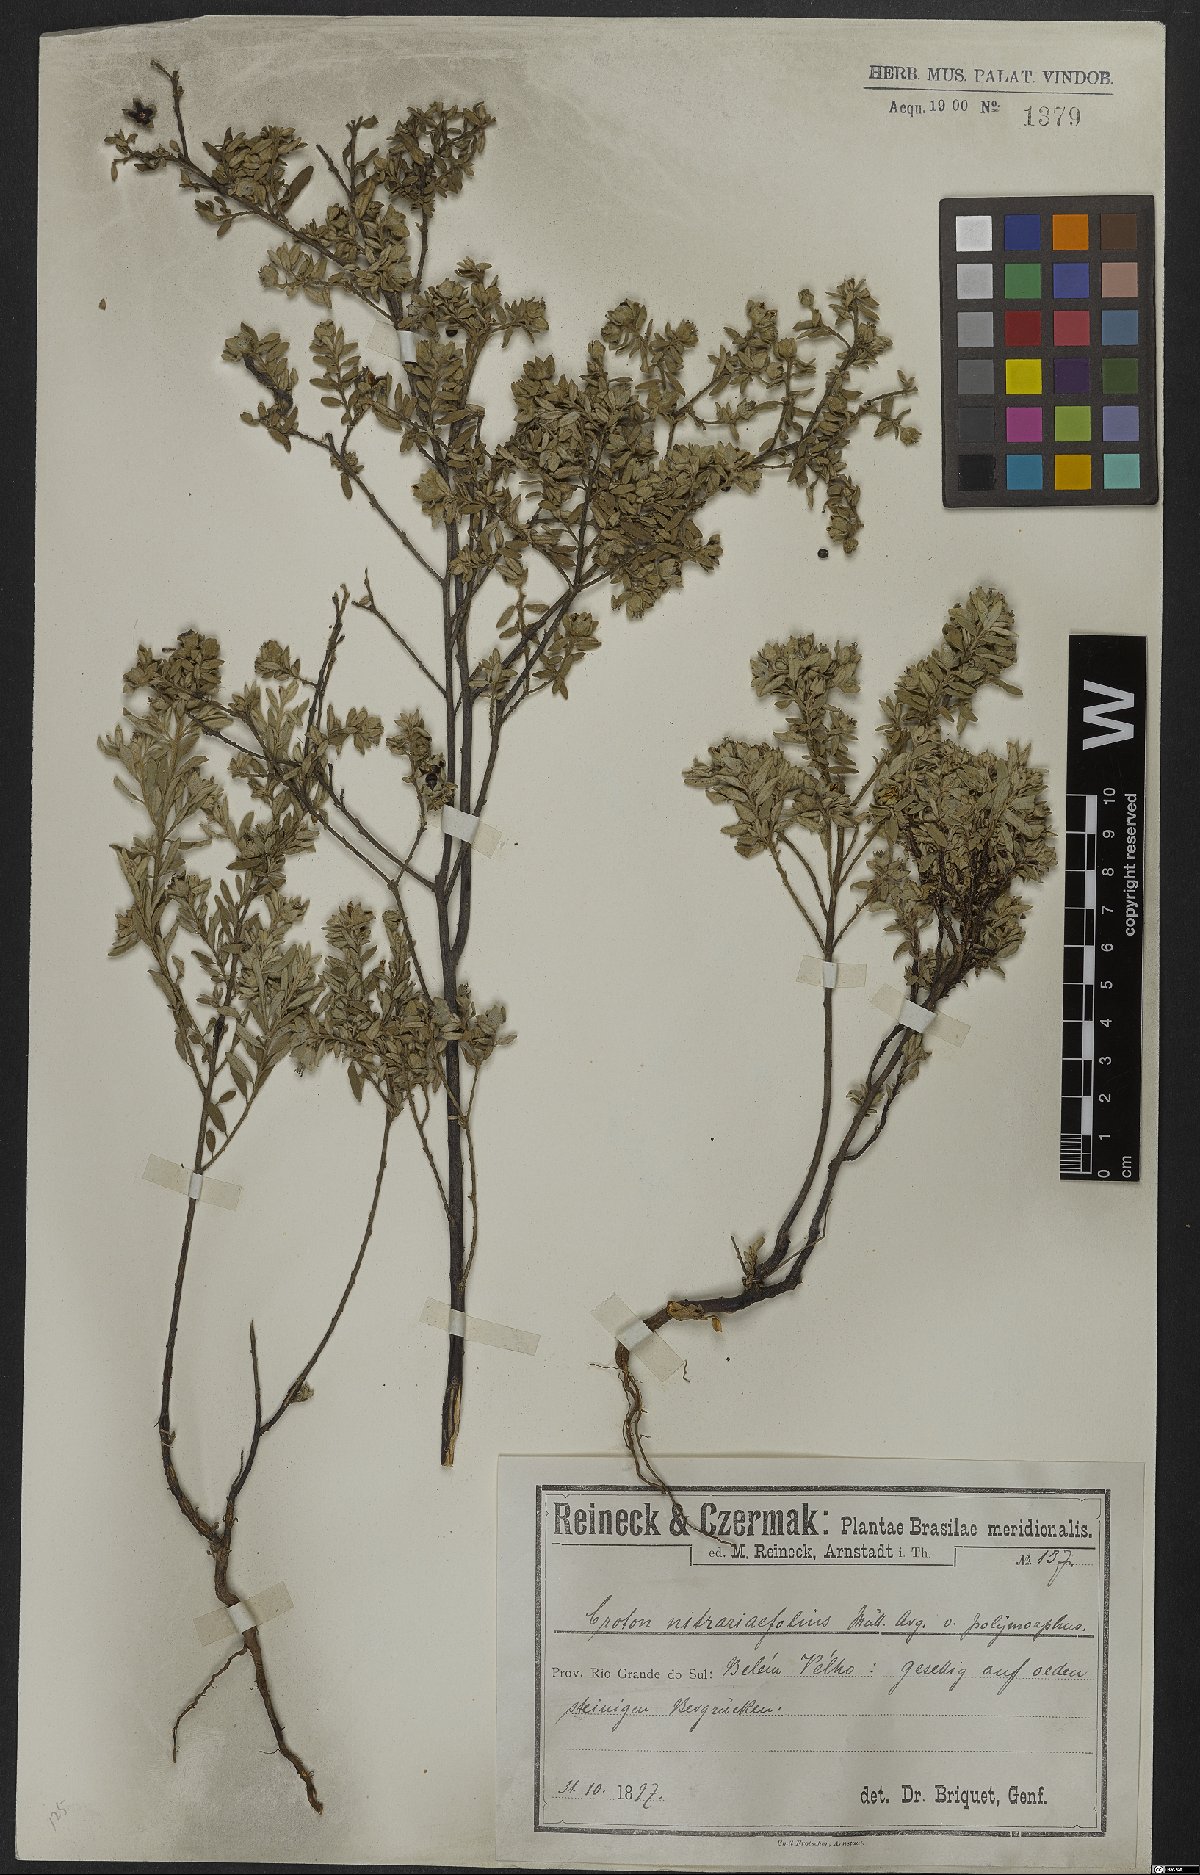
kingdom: Plantae
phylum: Tracheophyta
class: Magnoliopsida
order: Malpighiales
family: Euphorbiaceae
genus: Croton
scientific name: Croton nitrariifolius
